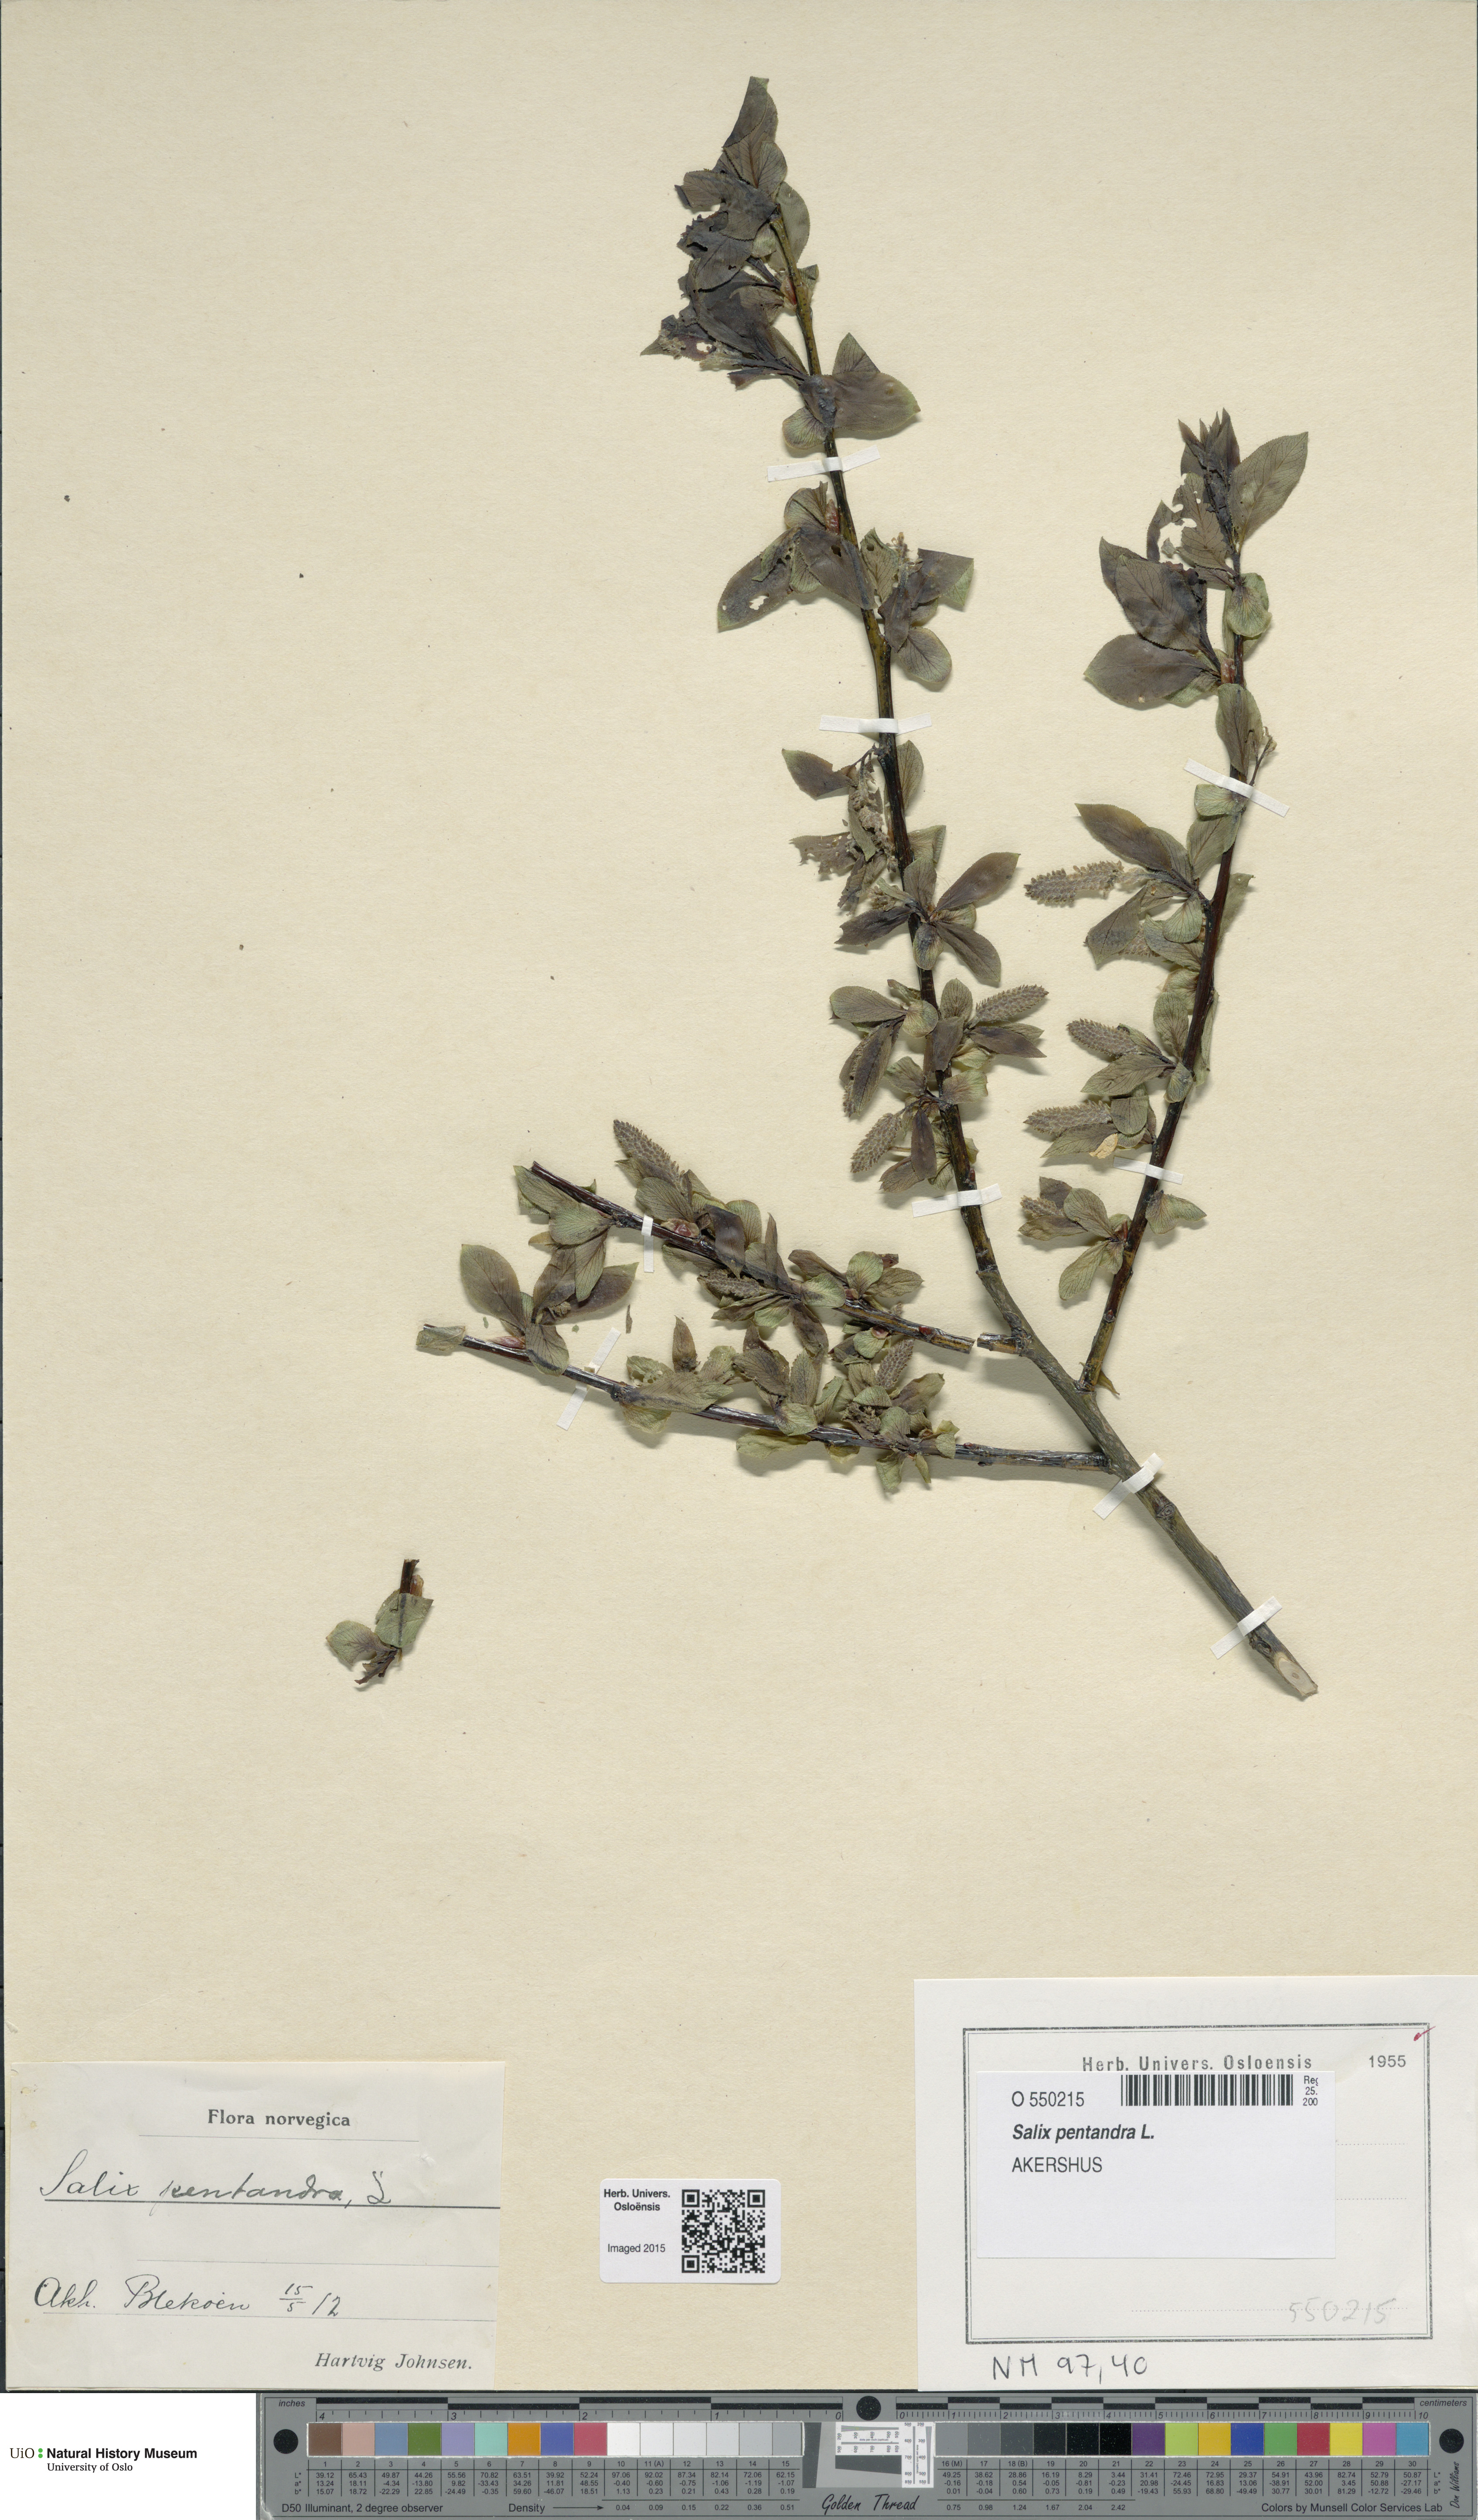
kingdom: Plantae
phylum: Tracheophyta
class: Magnoliopsida
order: Malpighiales
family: Salicaceae
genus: Salix
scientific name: Salix pentandra
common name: Bay willow
